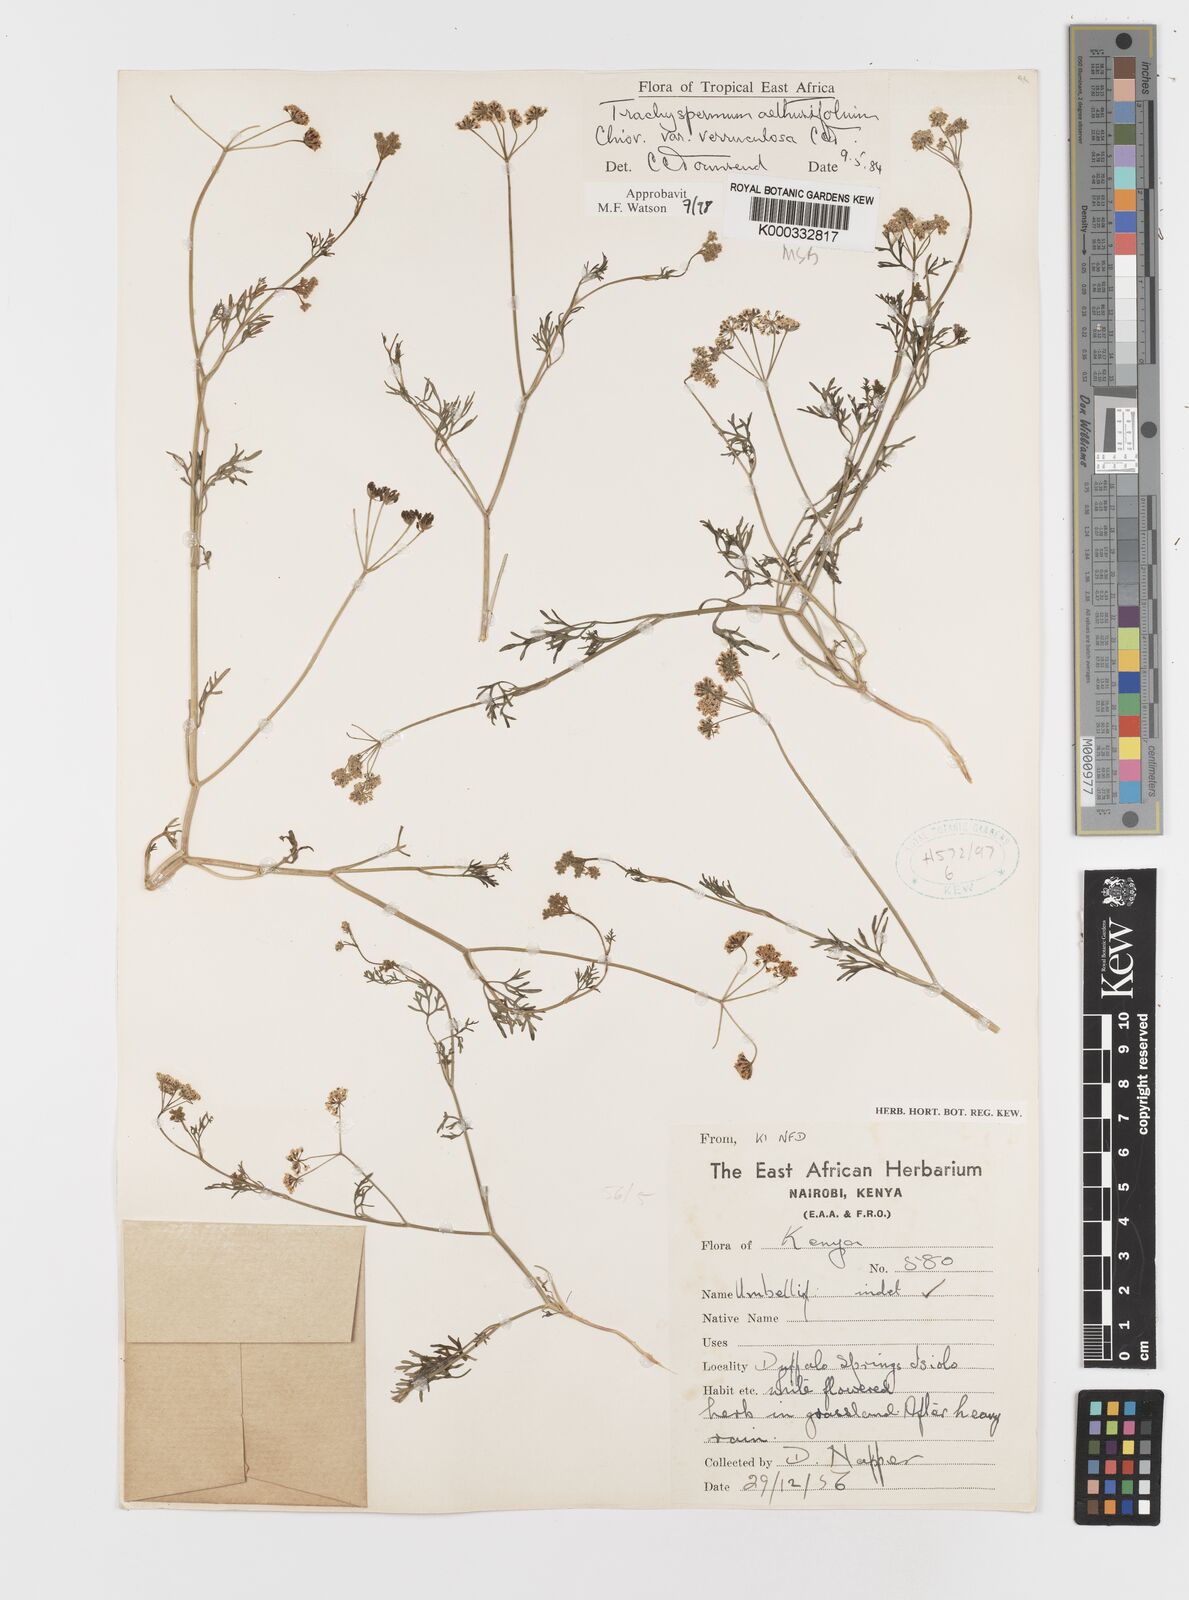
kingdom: Plantae
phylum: Tracheophyta
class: Magnoliopsida
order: Apiales
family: Apiaceae
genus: Trachyspermum
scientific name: Trachyspermum pimpinelloides
